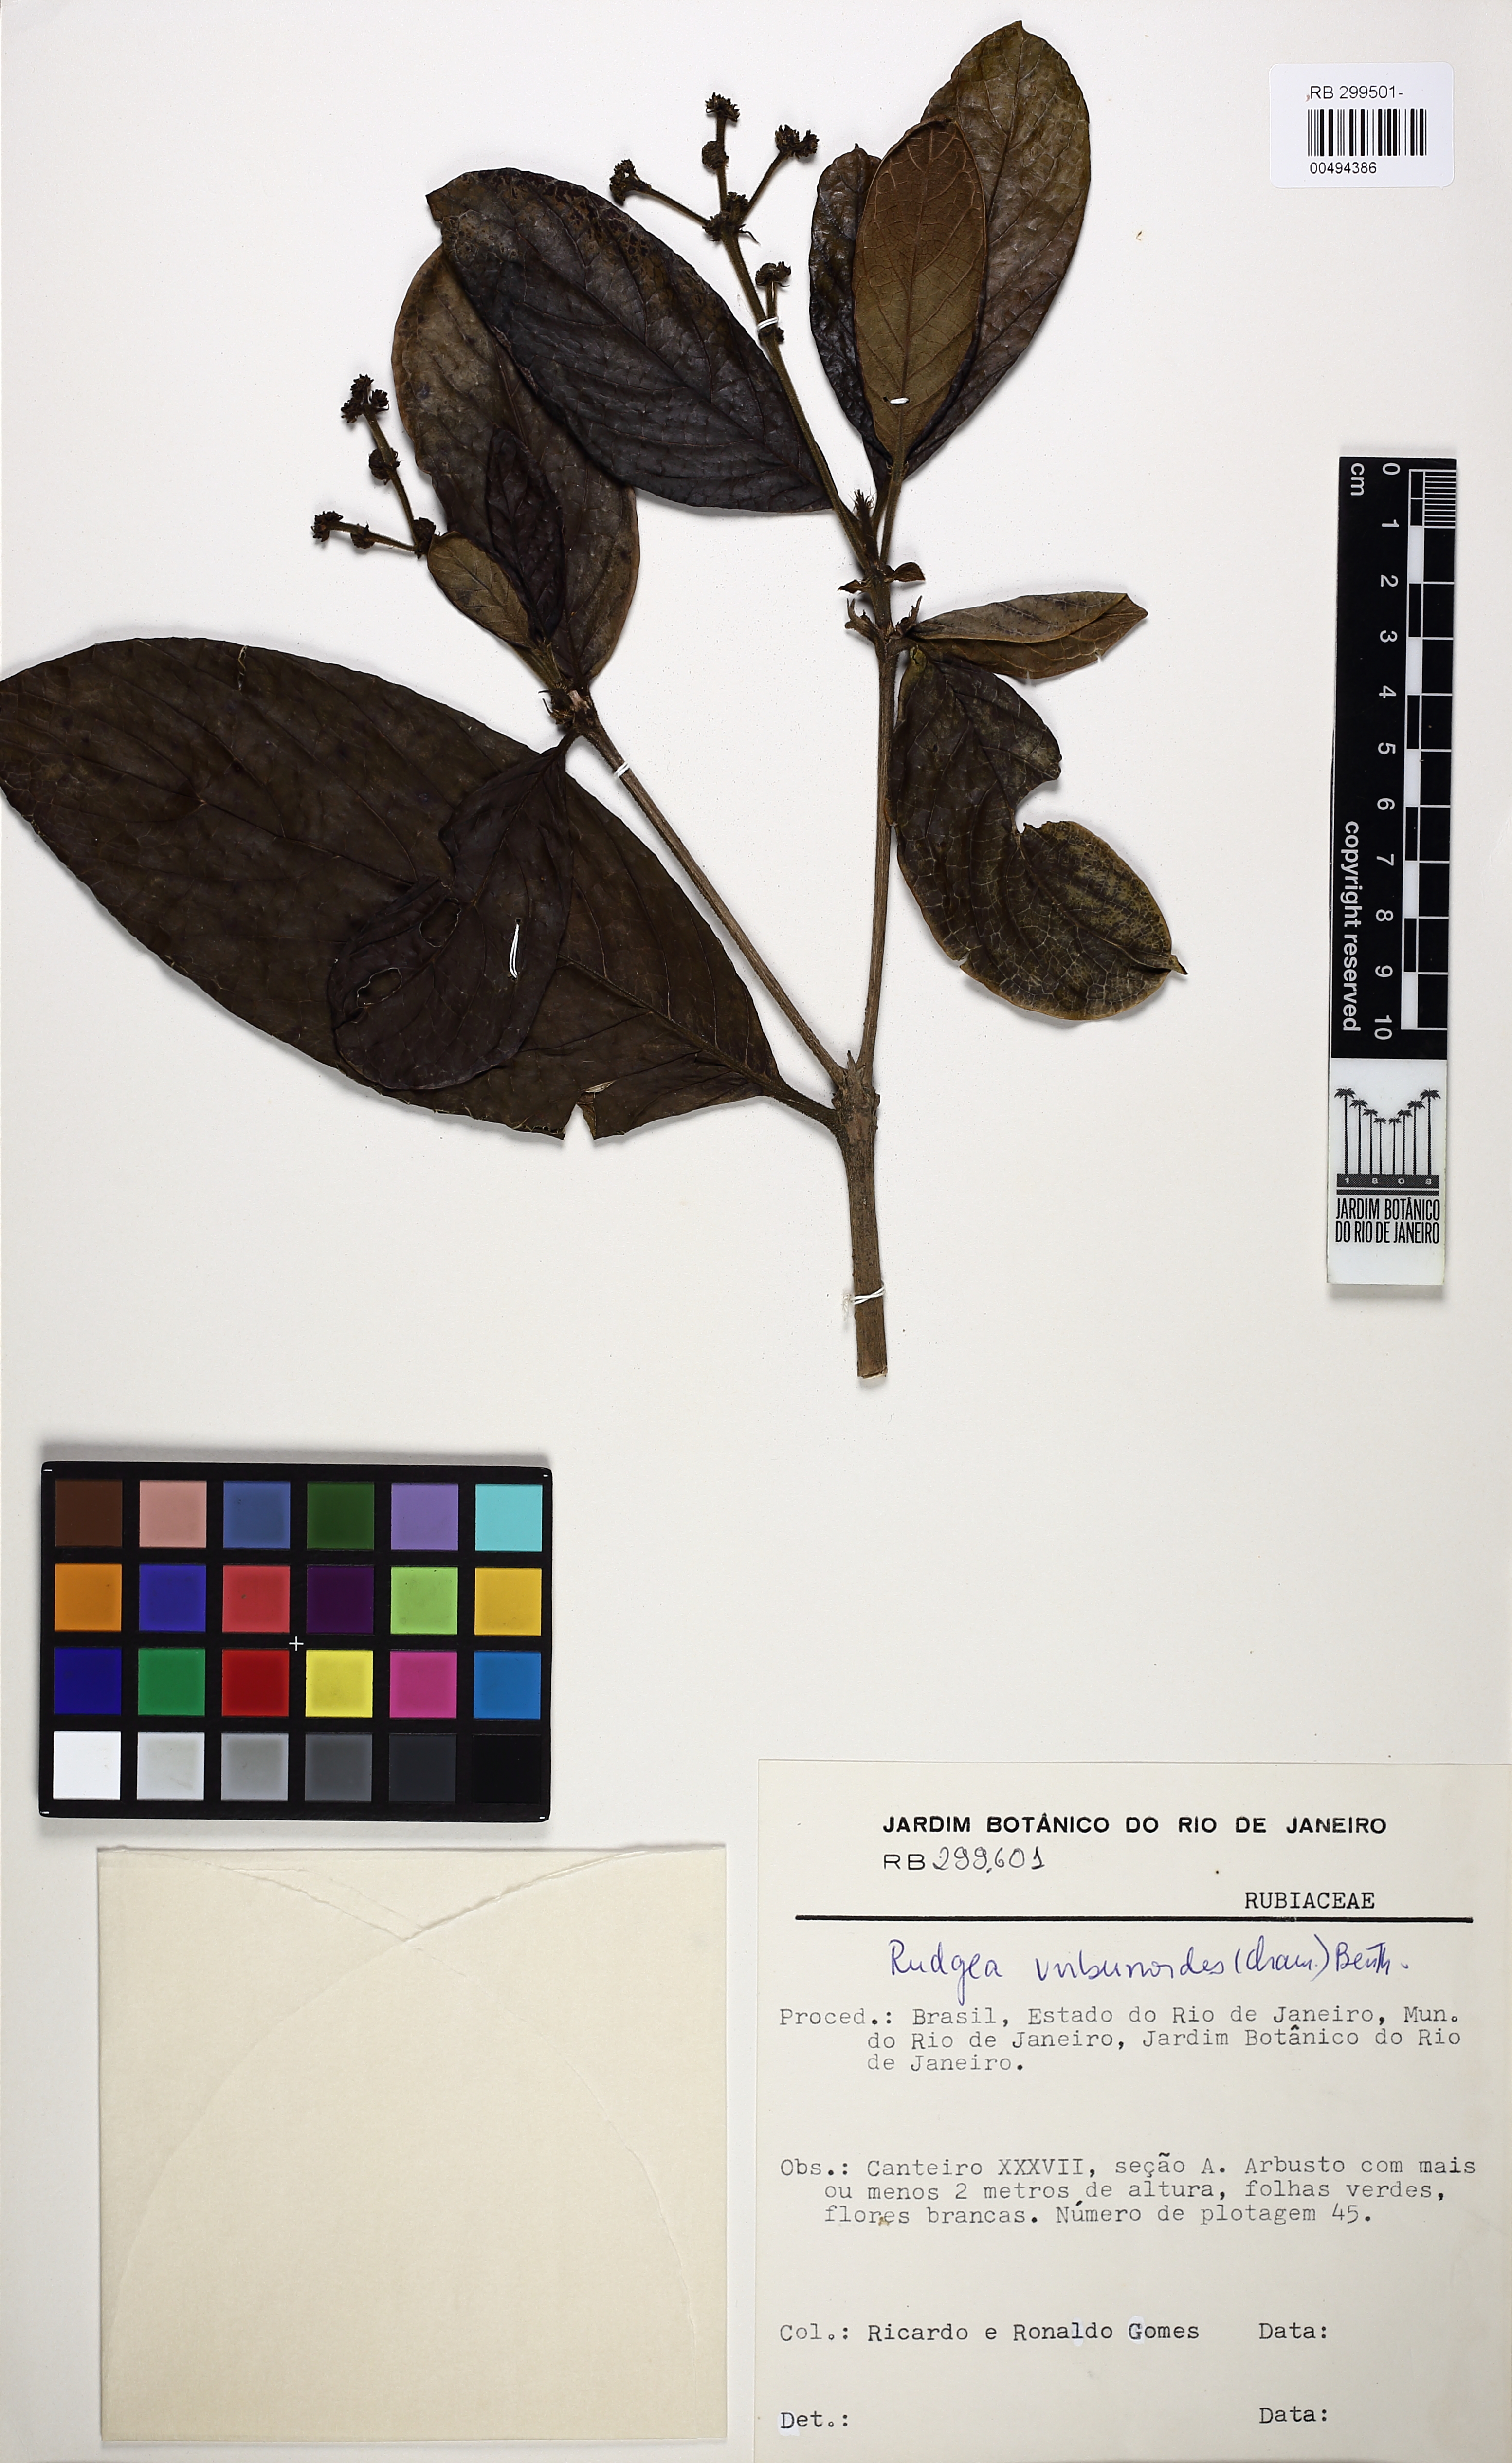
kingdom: Plantae
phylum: Tracheophyta
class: Magnoliopsida
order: Gentianales
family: Rubiaceae
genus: Rudgea
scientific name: Rudgea viburnoides
